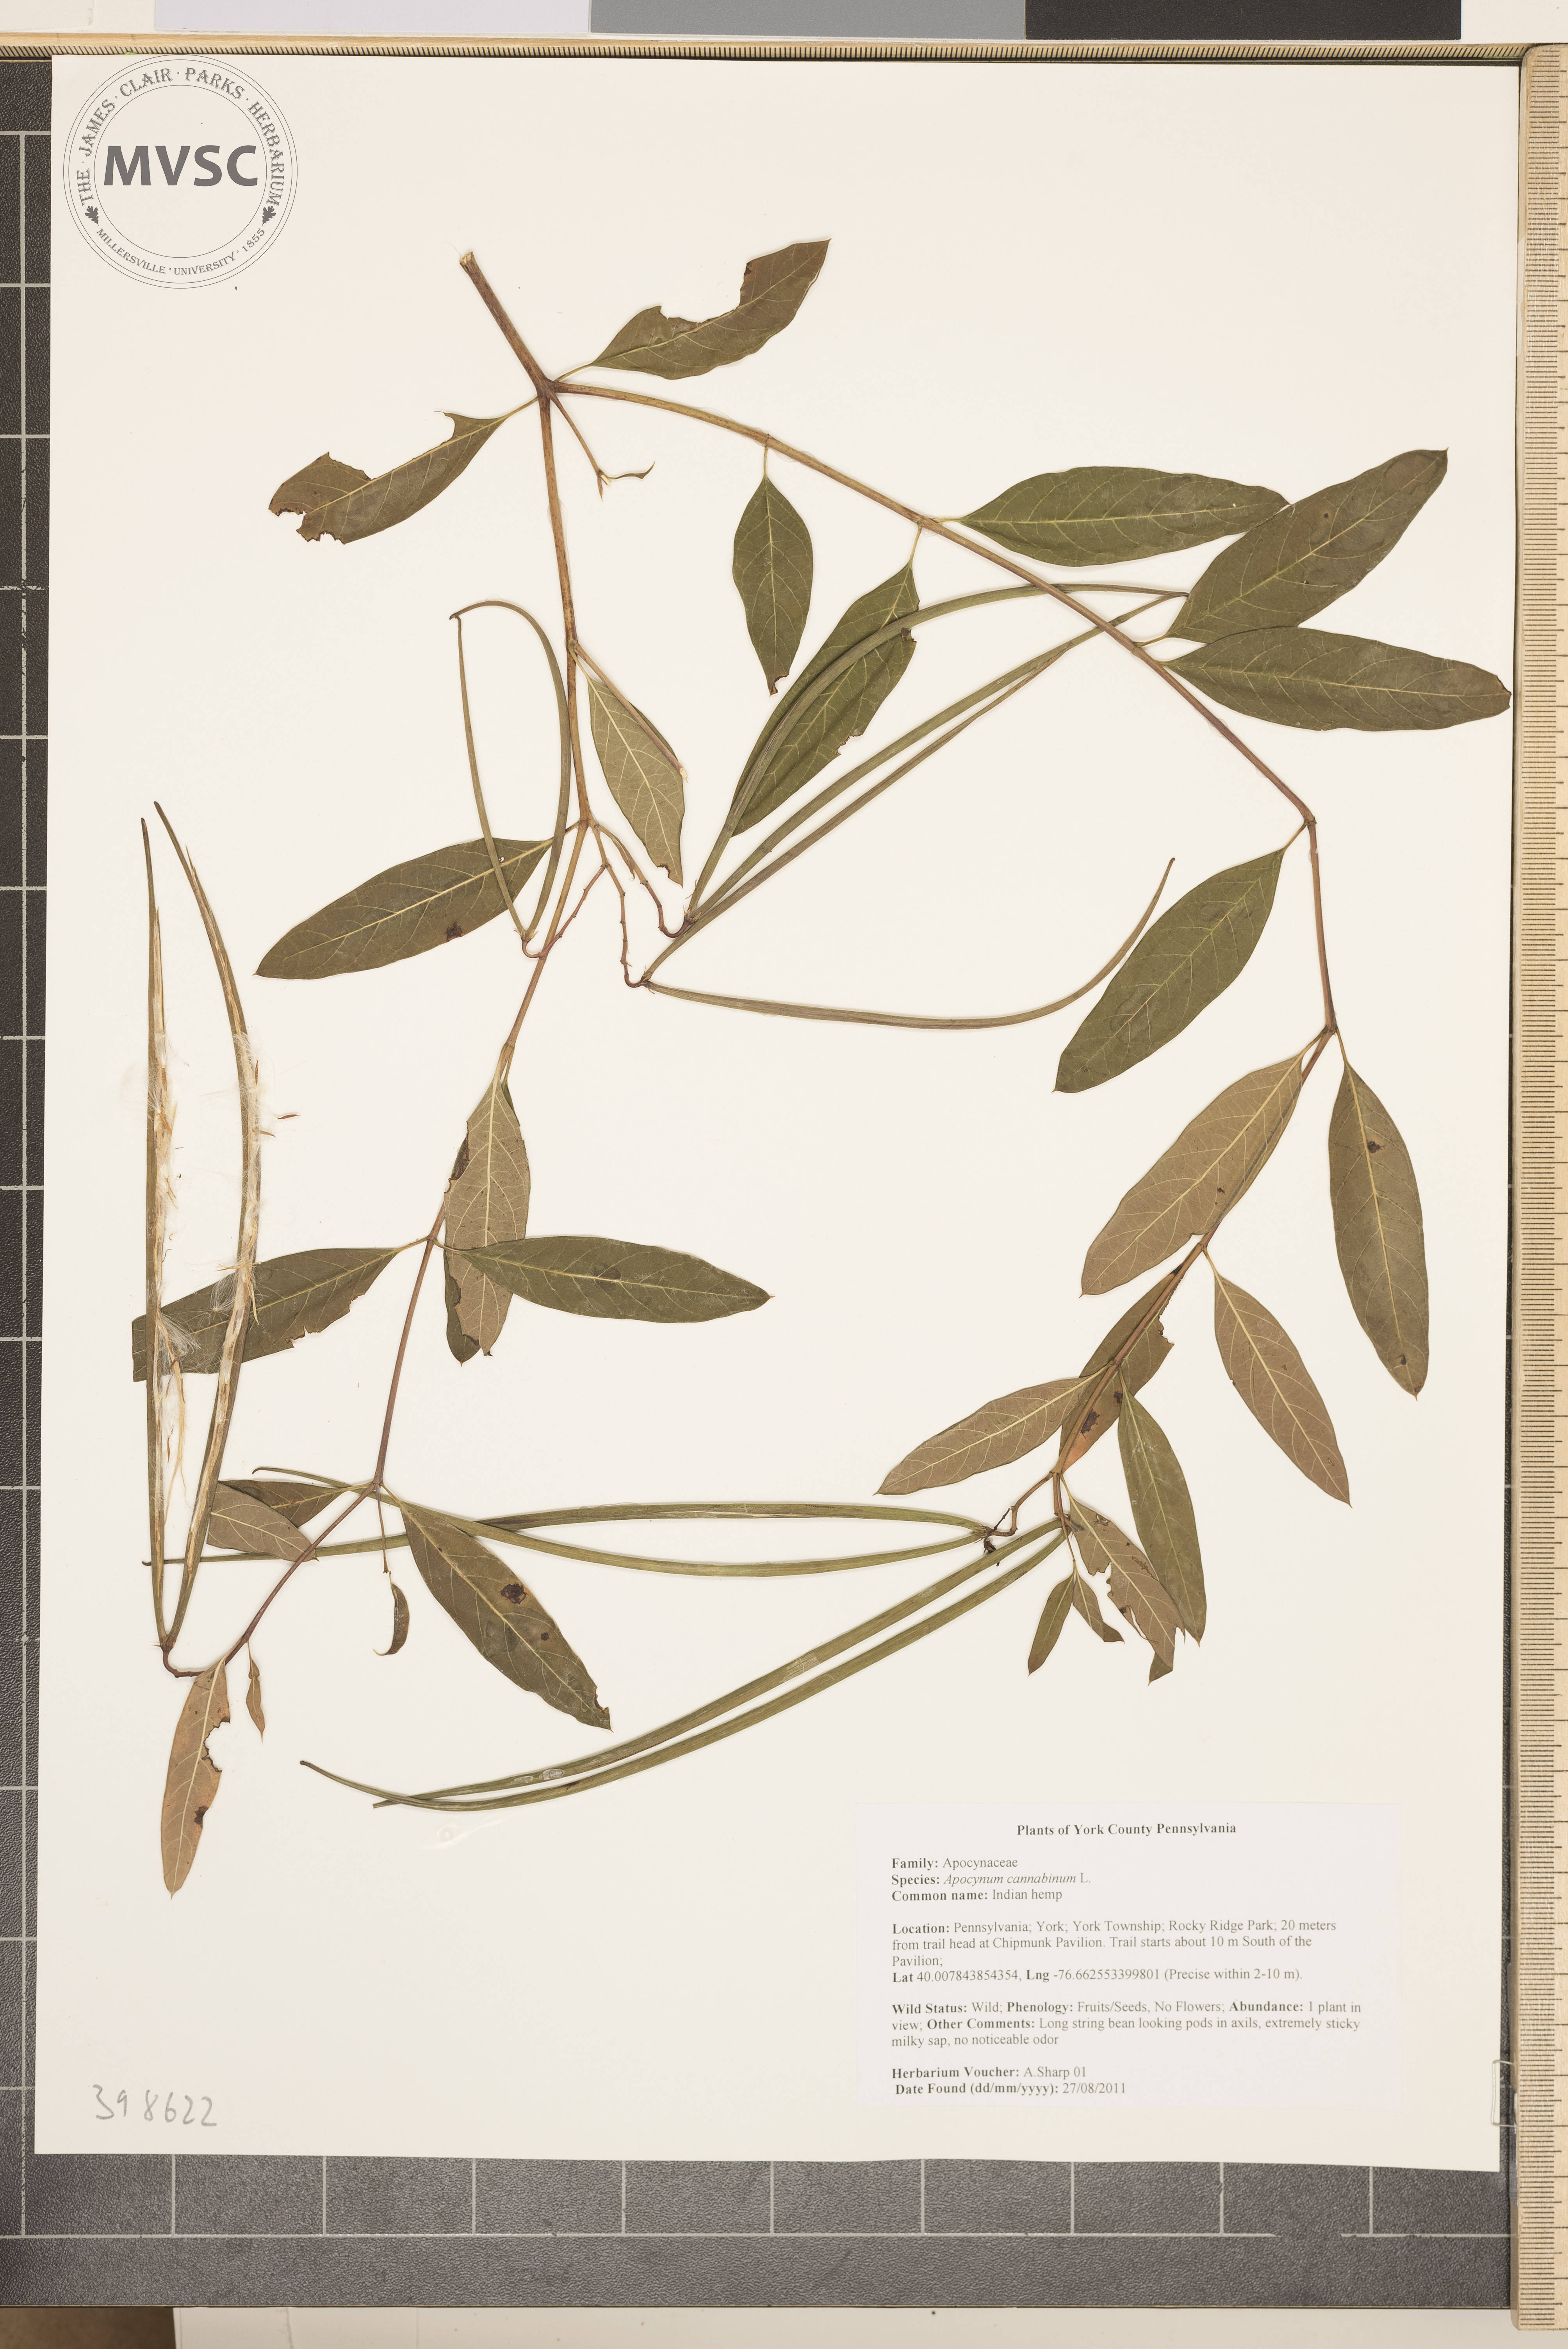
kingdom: Plantae
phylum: Tracheophyta
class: Magnoliopsida
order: Gentianales
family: Apocynaceae
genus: Apocynum
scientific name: Apocynum cannabinum
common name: Indian-hemp
